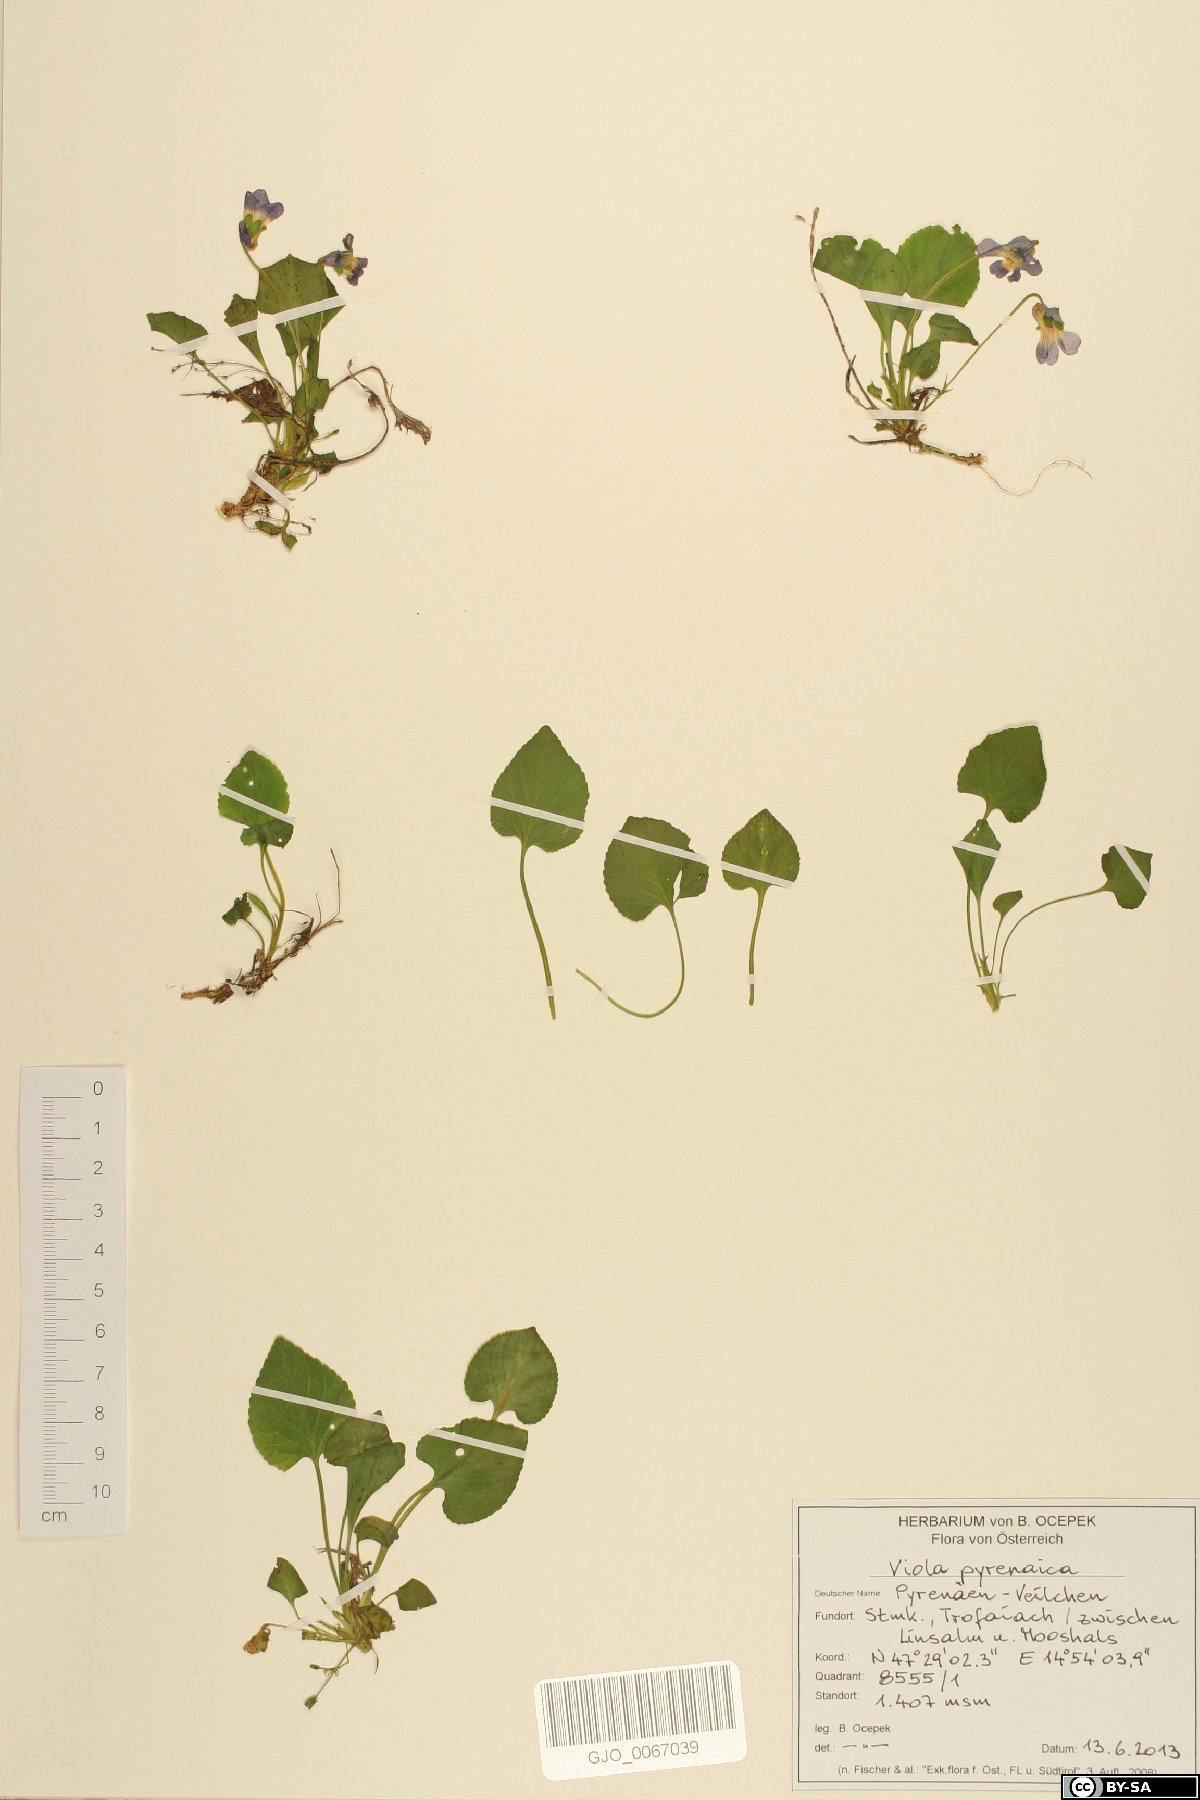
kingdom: Plantae
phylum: Tracheophyta
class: Magnoliopsida
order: Malpighiales
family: Violaceae
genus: Viola
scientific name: Viola pyrenaica
